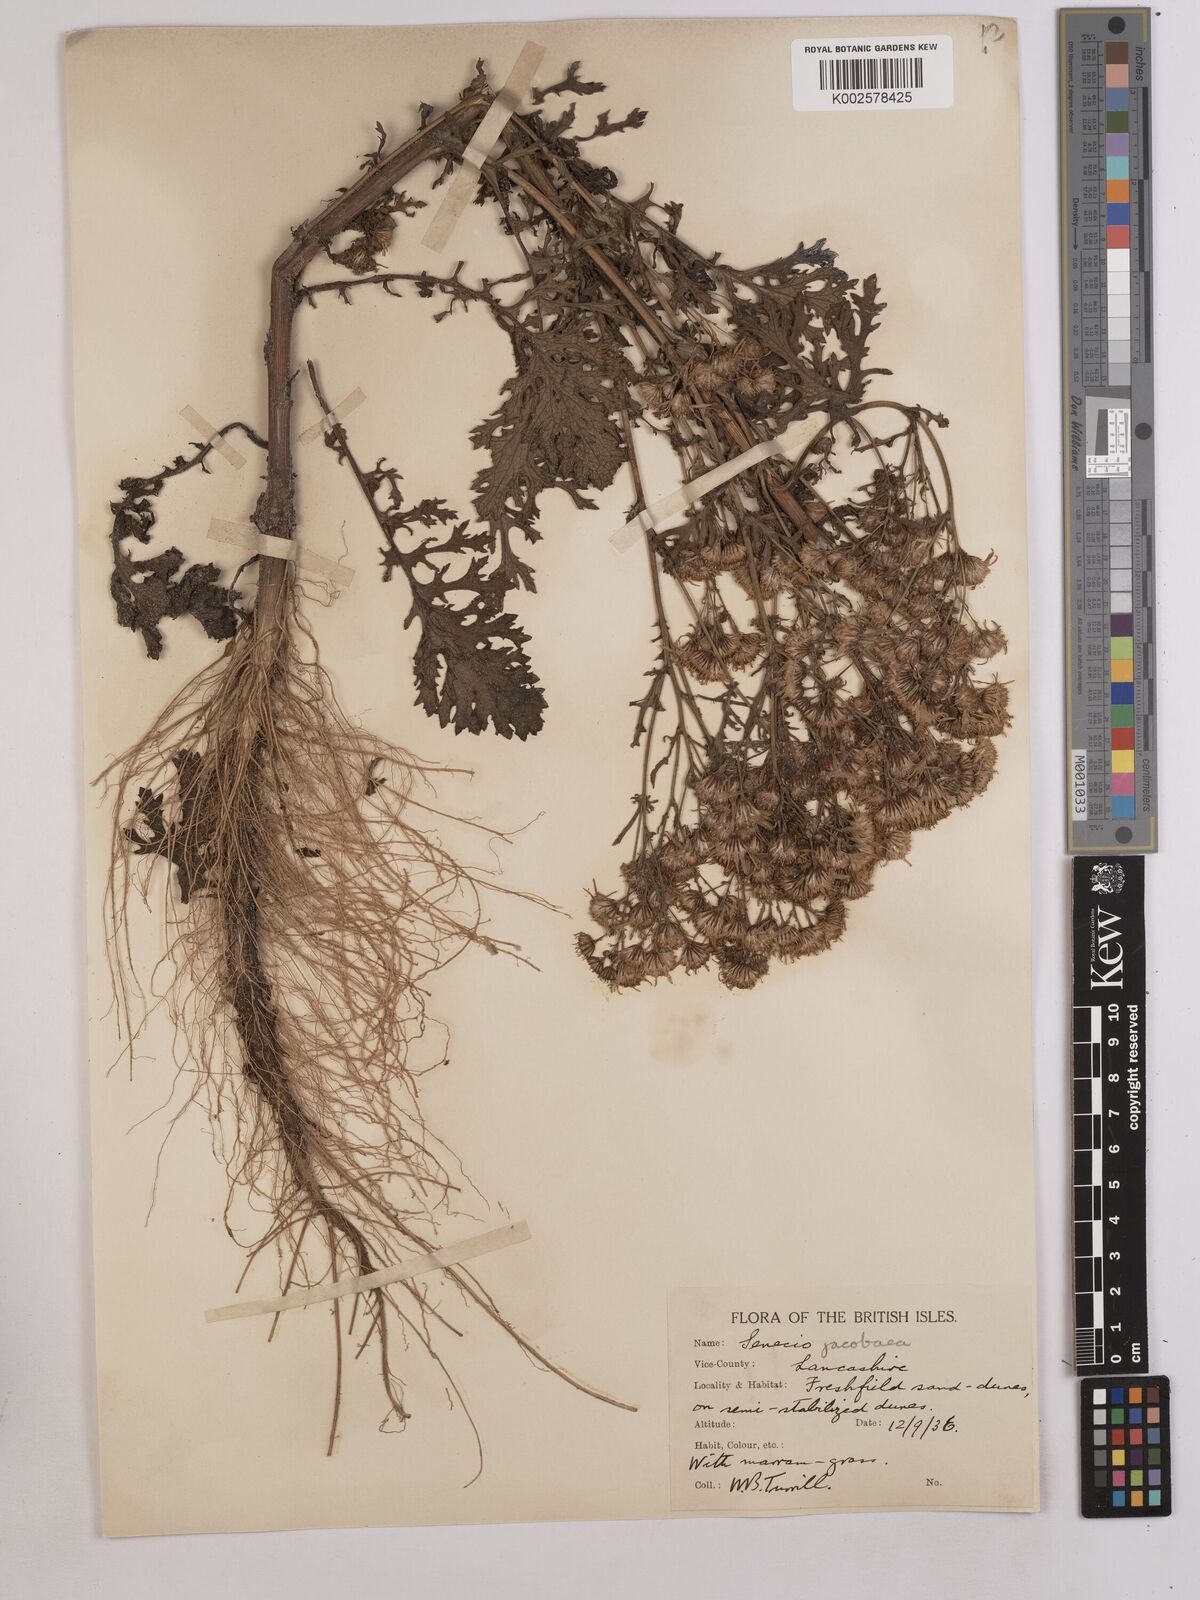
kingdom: Plantae
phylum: Tracheophyta
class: Magnoliopsida
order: Asterales
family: Asteraceae
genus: Jacobaea
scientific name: Jacobaea vulgaris
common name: Stinking willie
